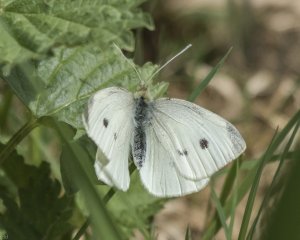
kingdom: Animalia
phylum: Arthropoda
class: Insecta
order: Lepidoptera
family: Pieridae
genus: Pieris
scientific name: Pieris rapae
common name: Cabbage White
